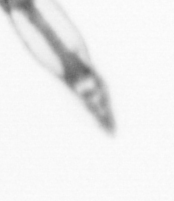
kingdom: Animalia
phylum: Arthropoda
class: Copepoda
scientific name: Copepoda
